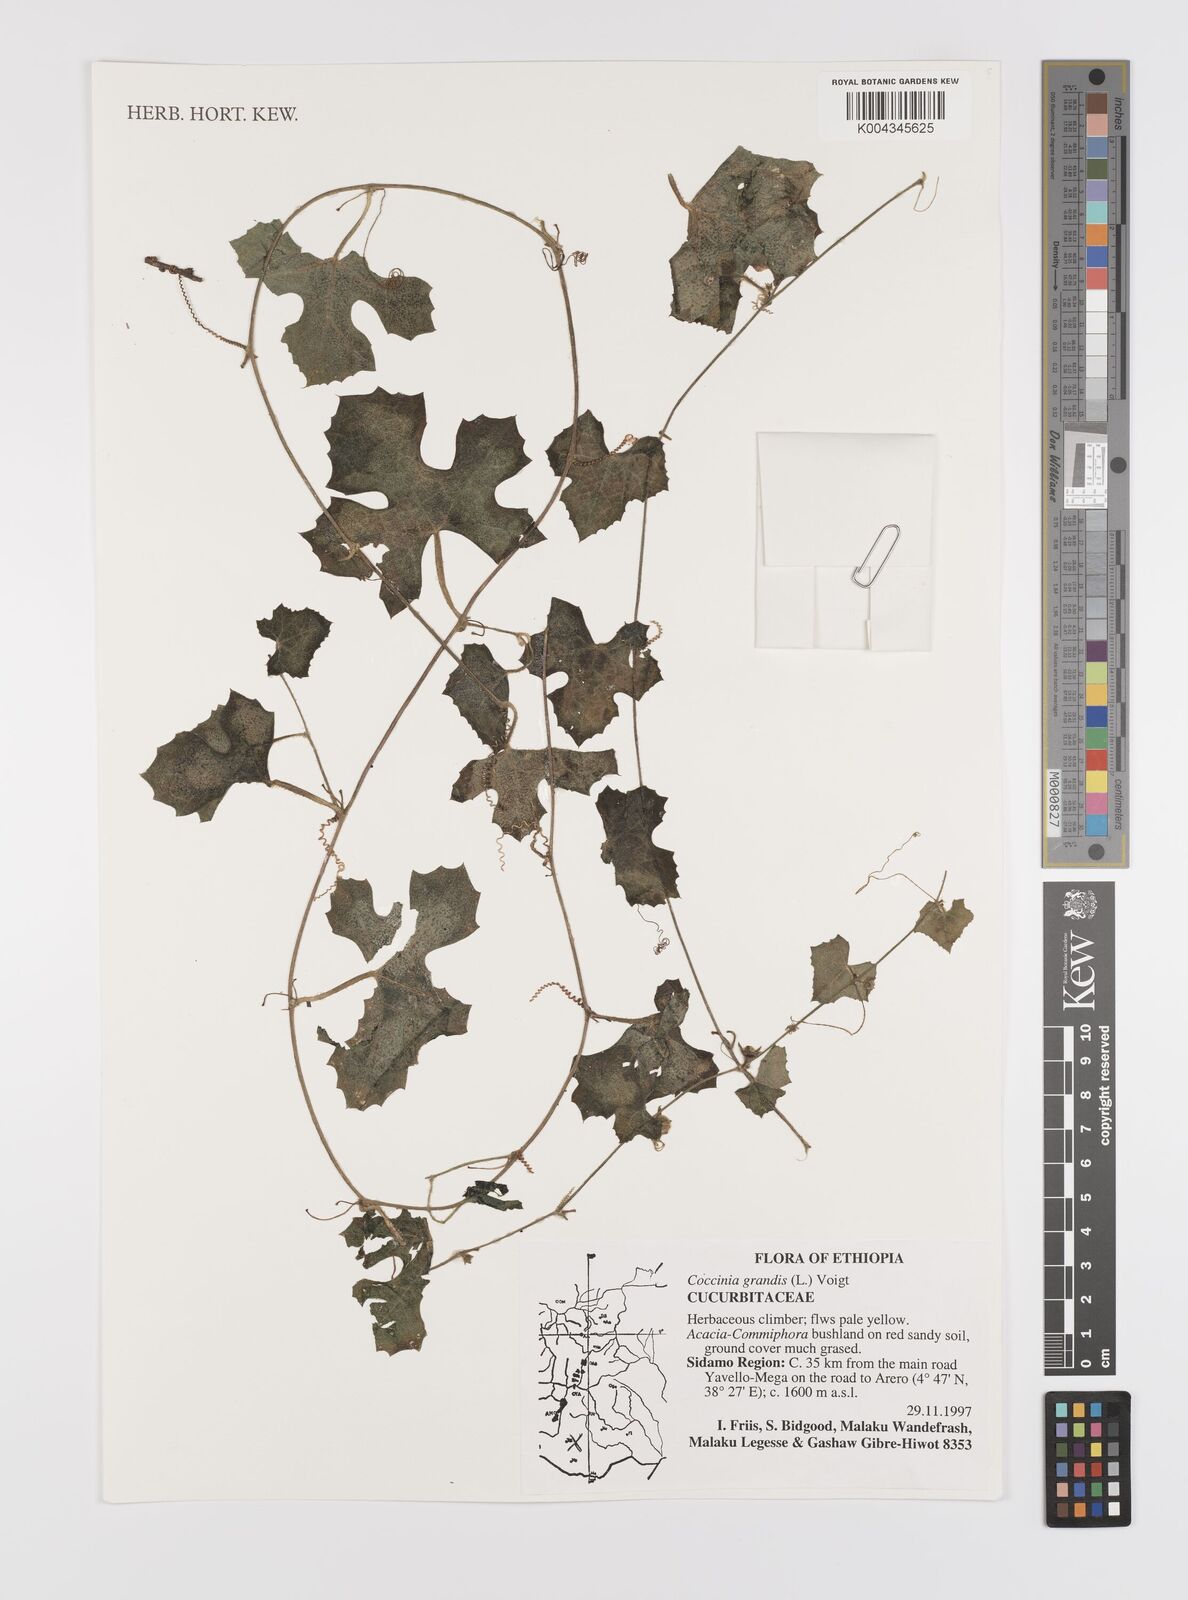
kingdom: Plantae
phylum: Tracheophyta
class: Magnoliopsida
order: Cucurbitales
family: Cucurbitaceae
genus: Coccinia
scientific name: Coccinia grandis
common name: Ivy gourd
